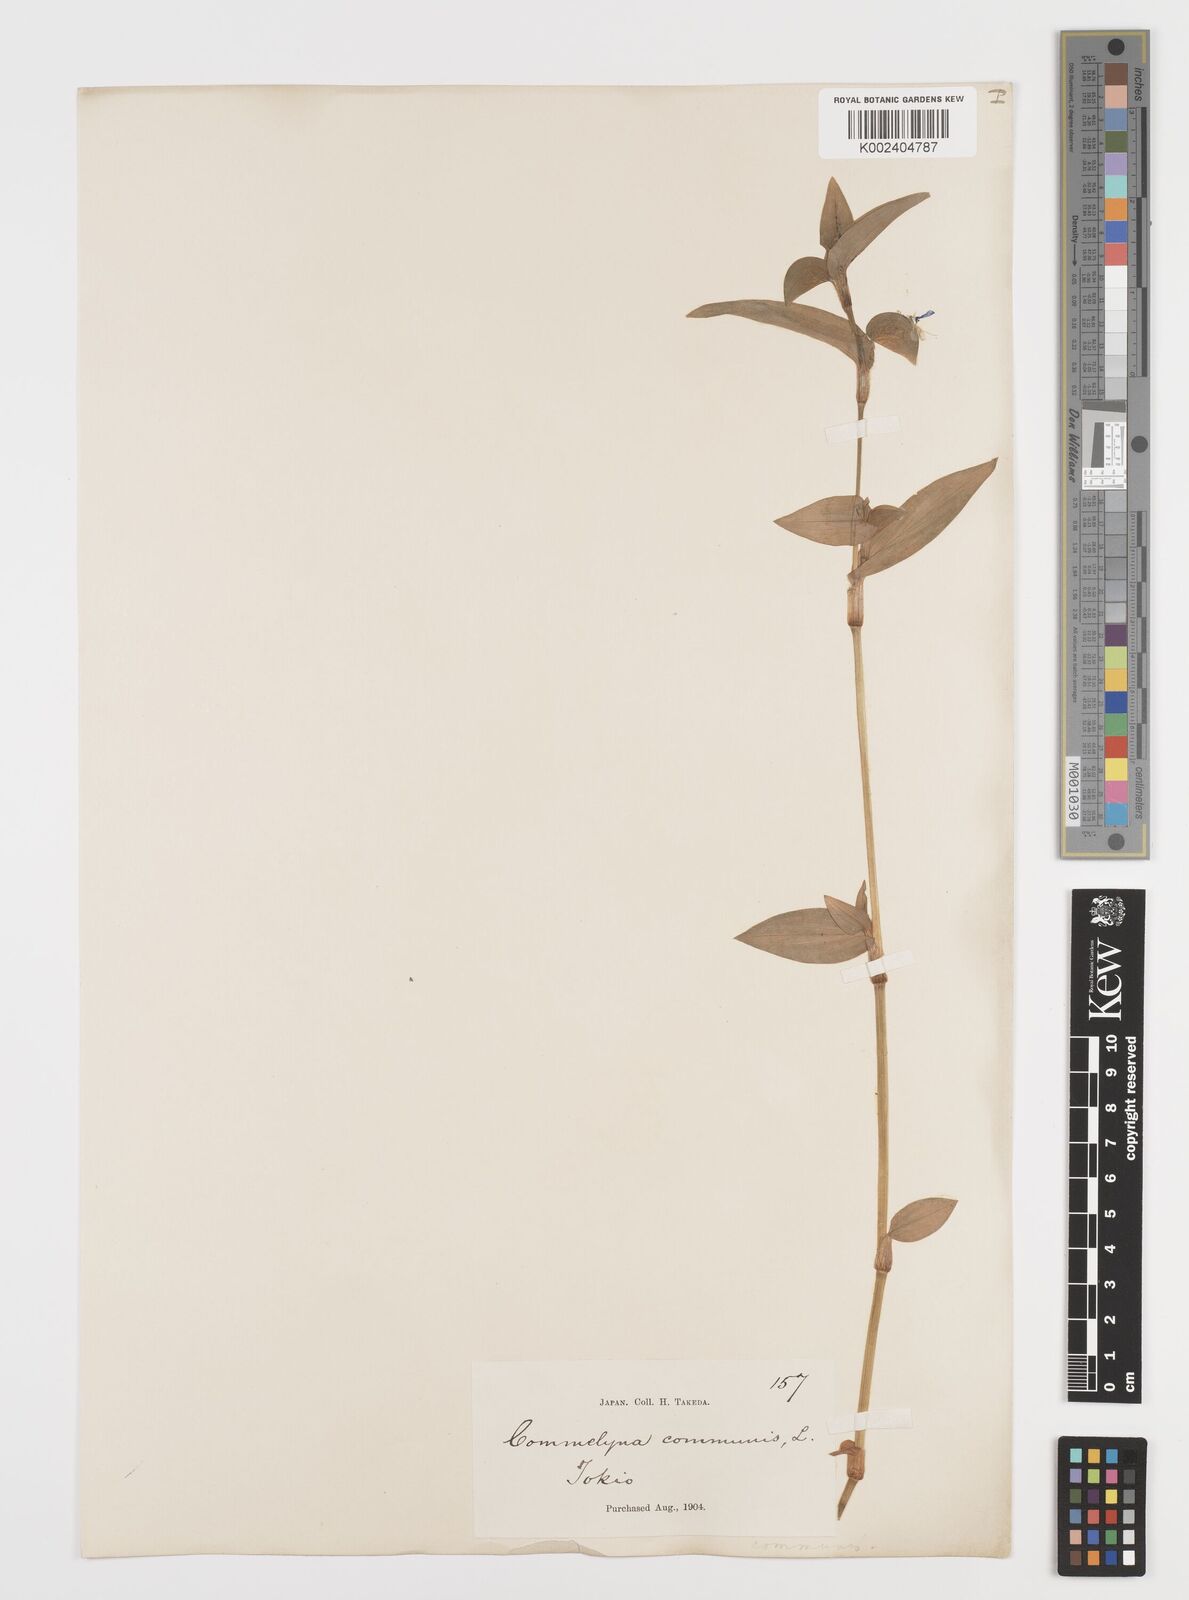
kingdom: Plantae
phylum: Tracheophyta
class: Liliopsida
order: Commelinales
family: Commelinaceae
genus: Commelina
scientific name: Commelina communis
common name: Asiatic dayflower
